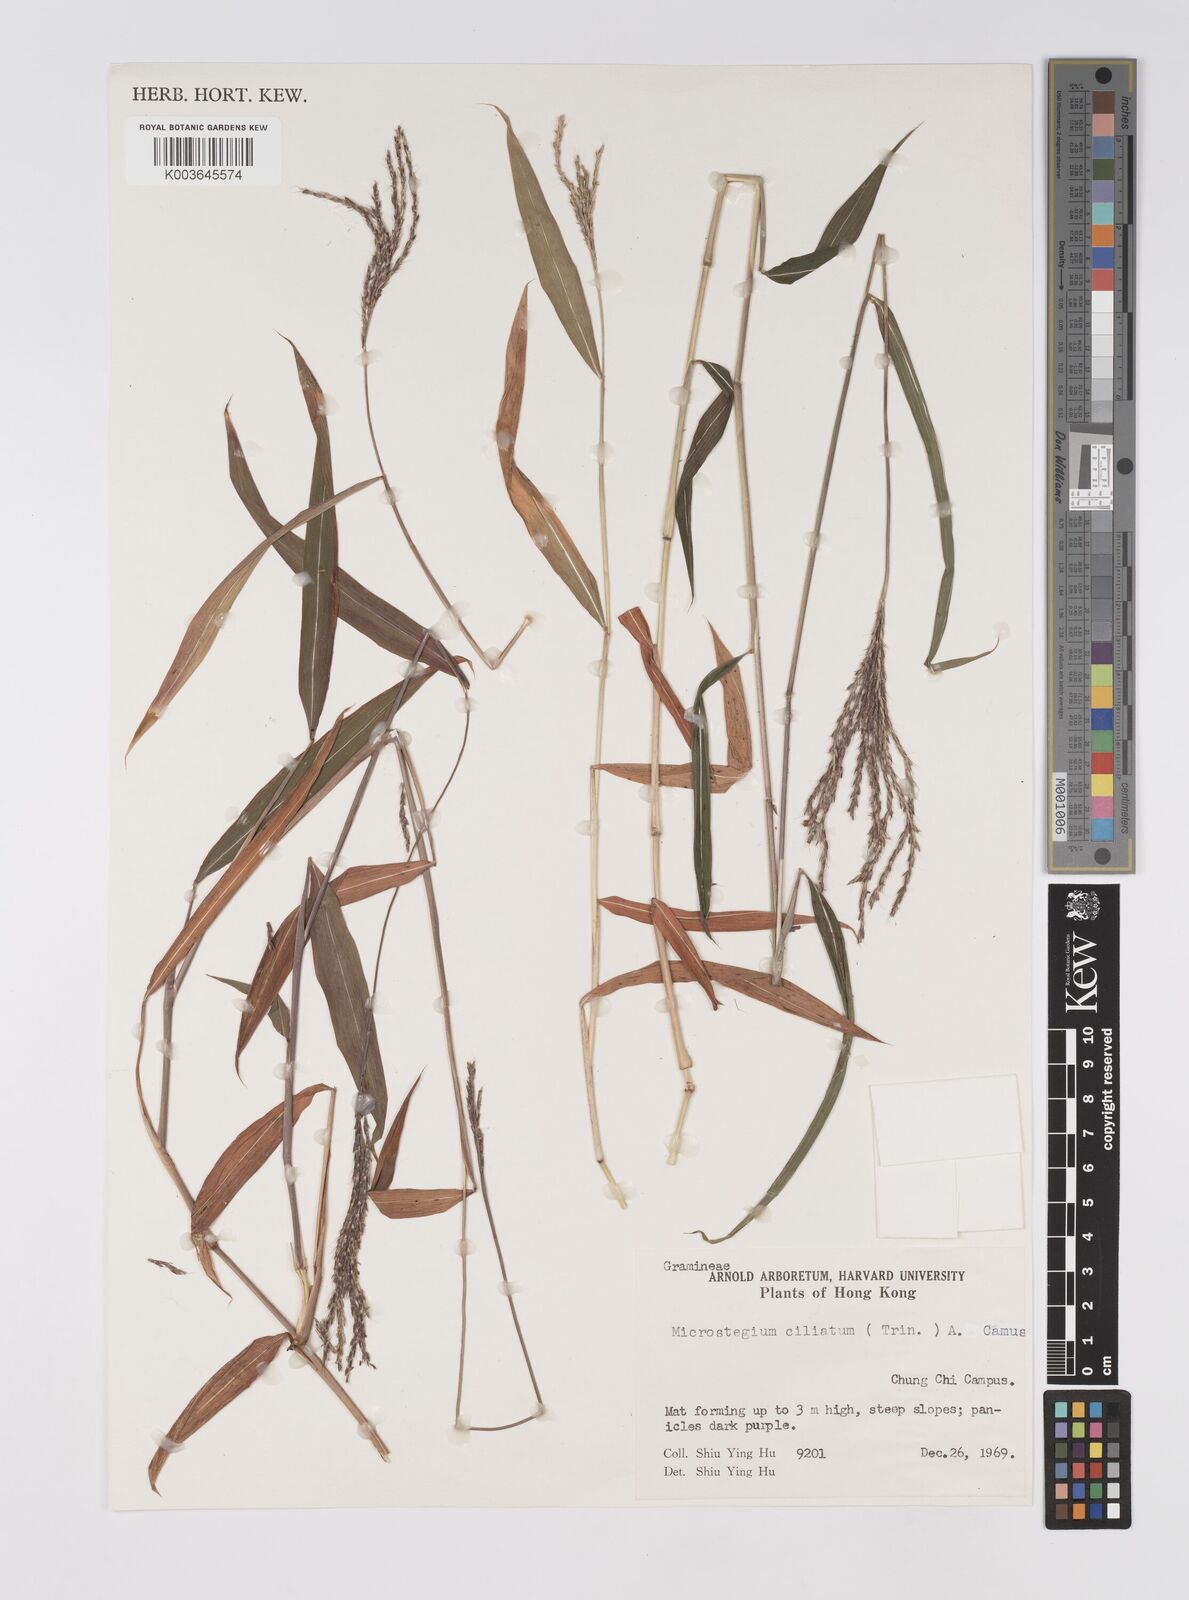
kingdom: Plantae
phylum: Tracheophyta
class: Liliopsida
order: Poales
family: Poaceae
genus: Microstegium
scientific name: Microstegium fasciculatum
